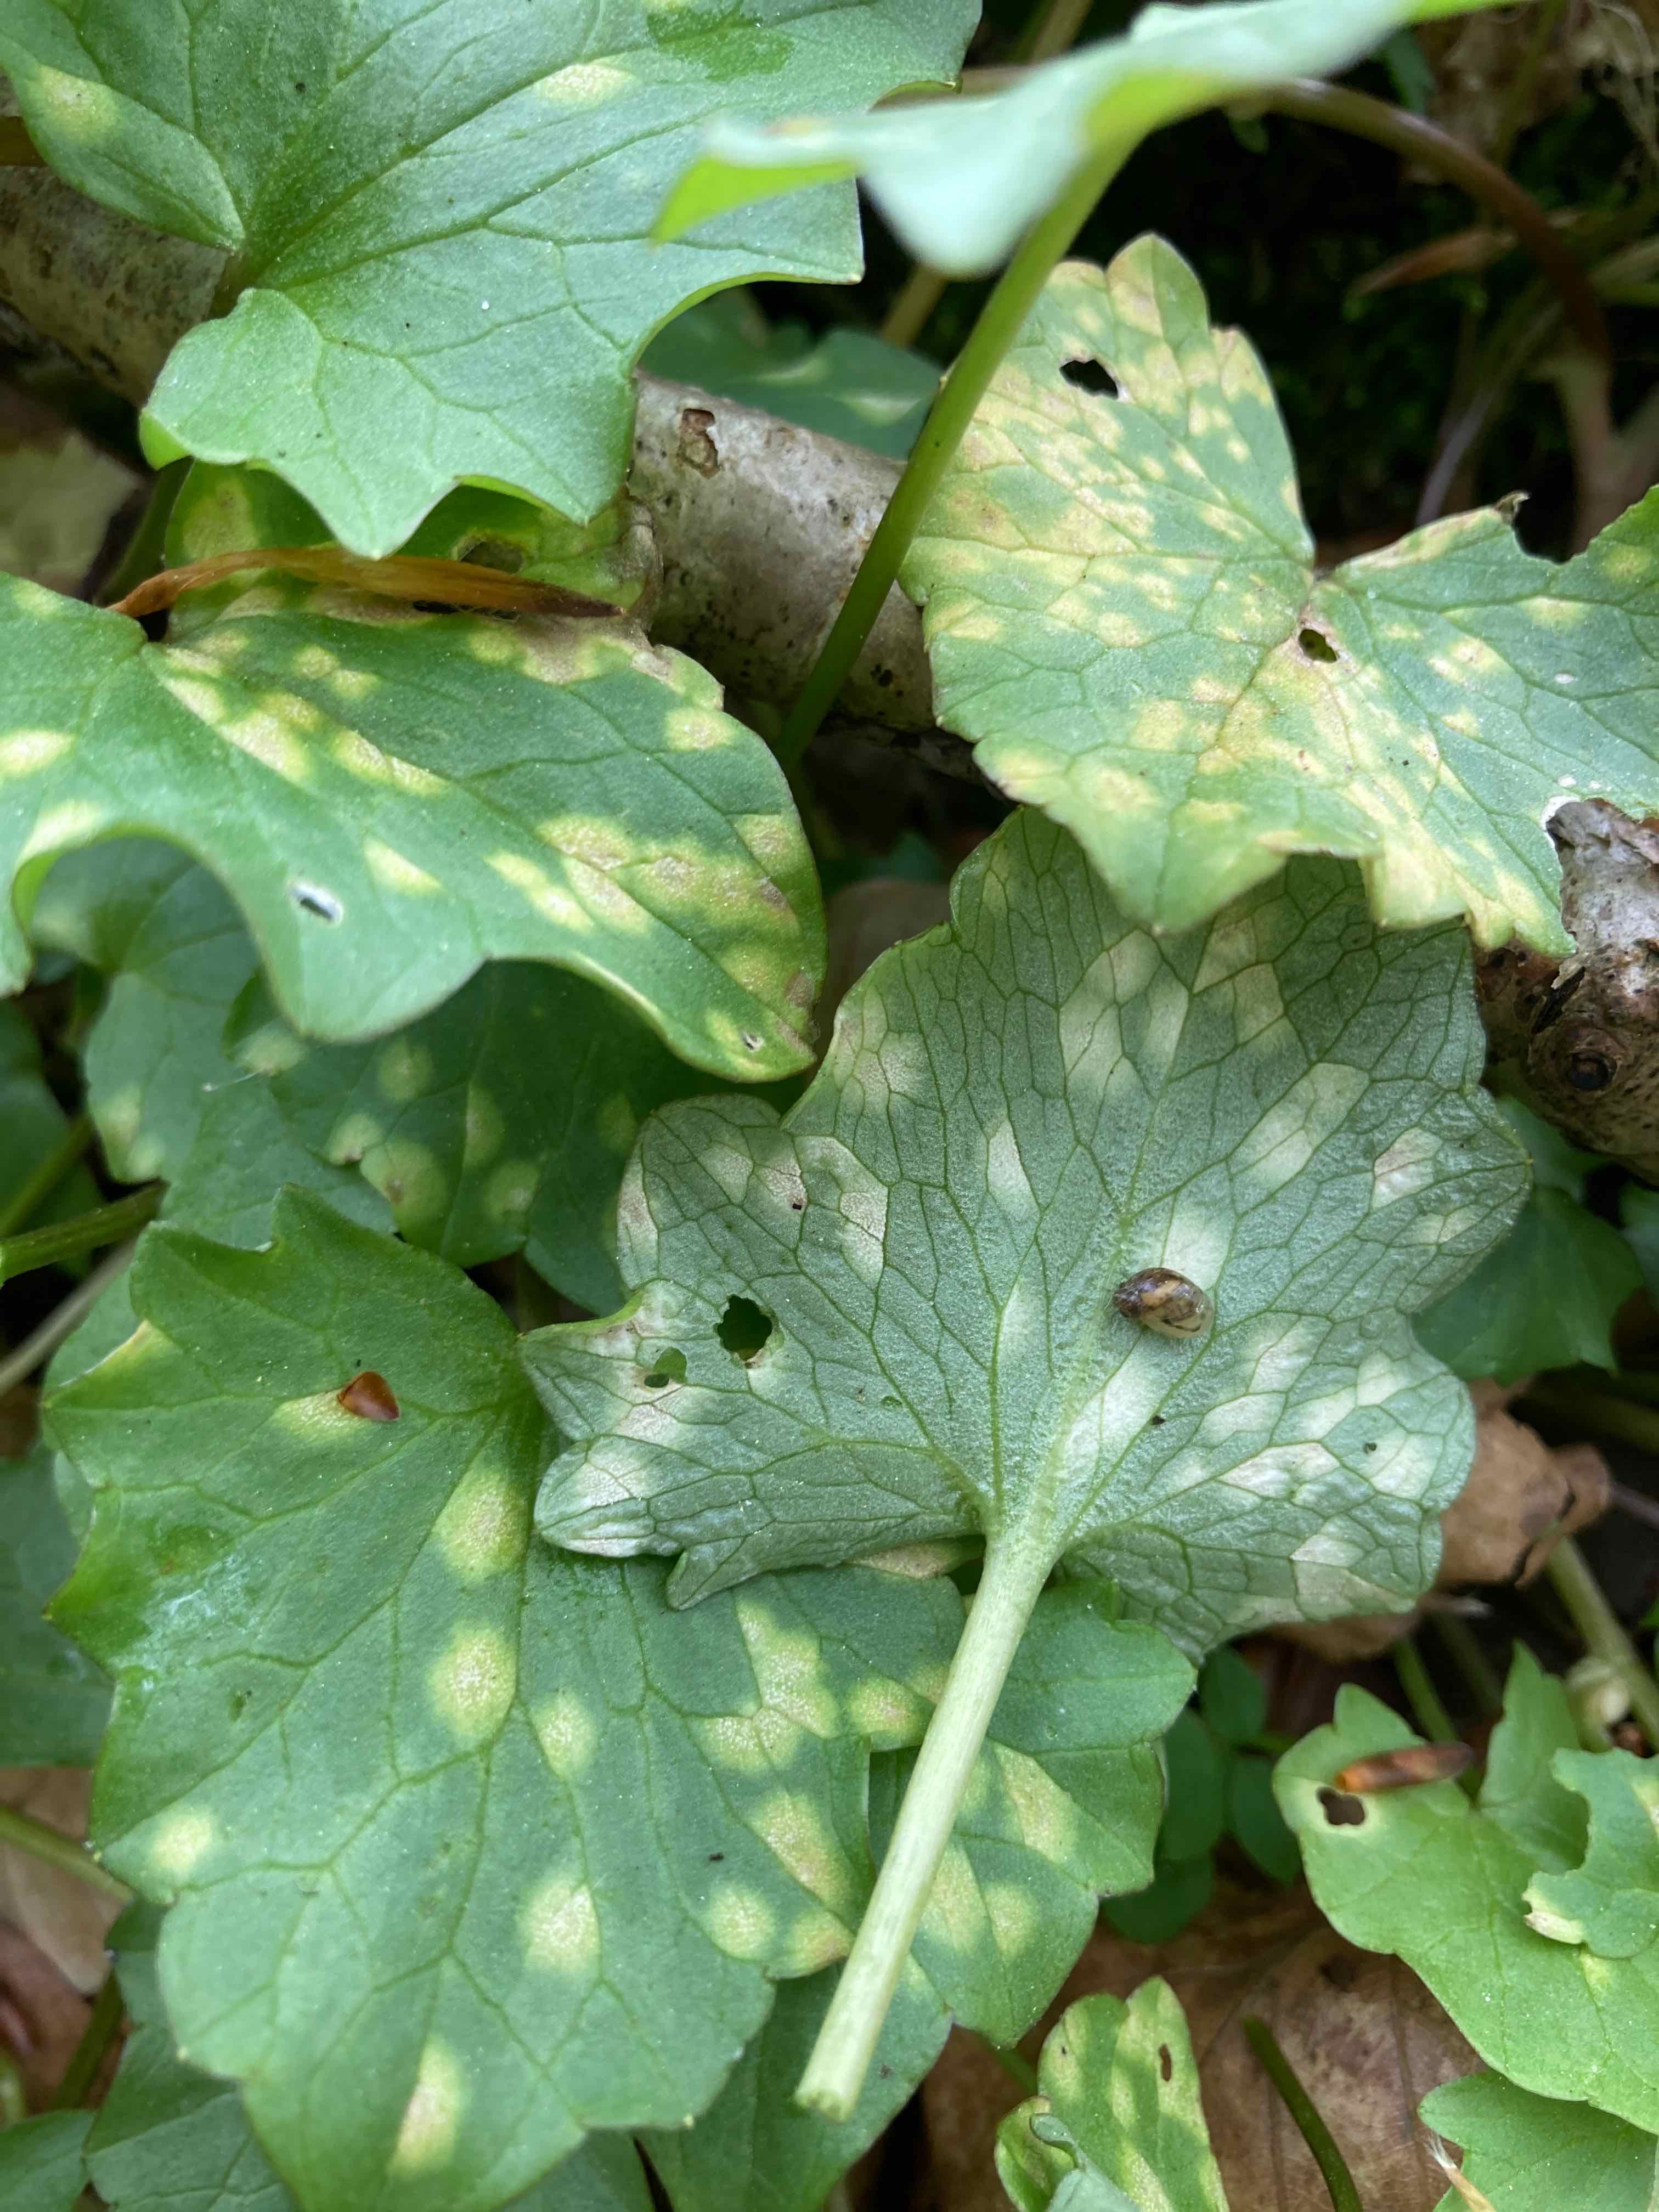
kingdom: Fungi
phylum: Basidiomycota
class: Exobasidiomycetes
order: Entylomatales
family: Entylomataceae
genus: Entyloma
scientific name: Entyloma ficariae
